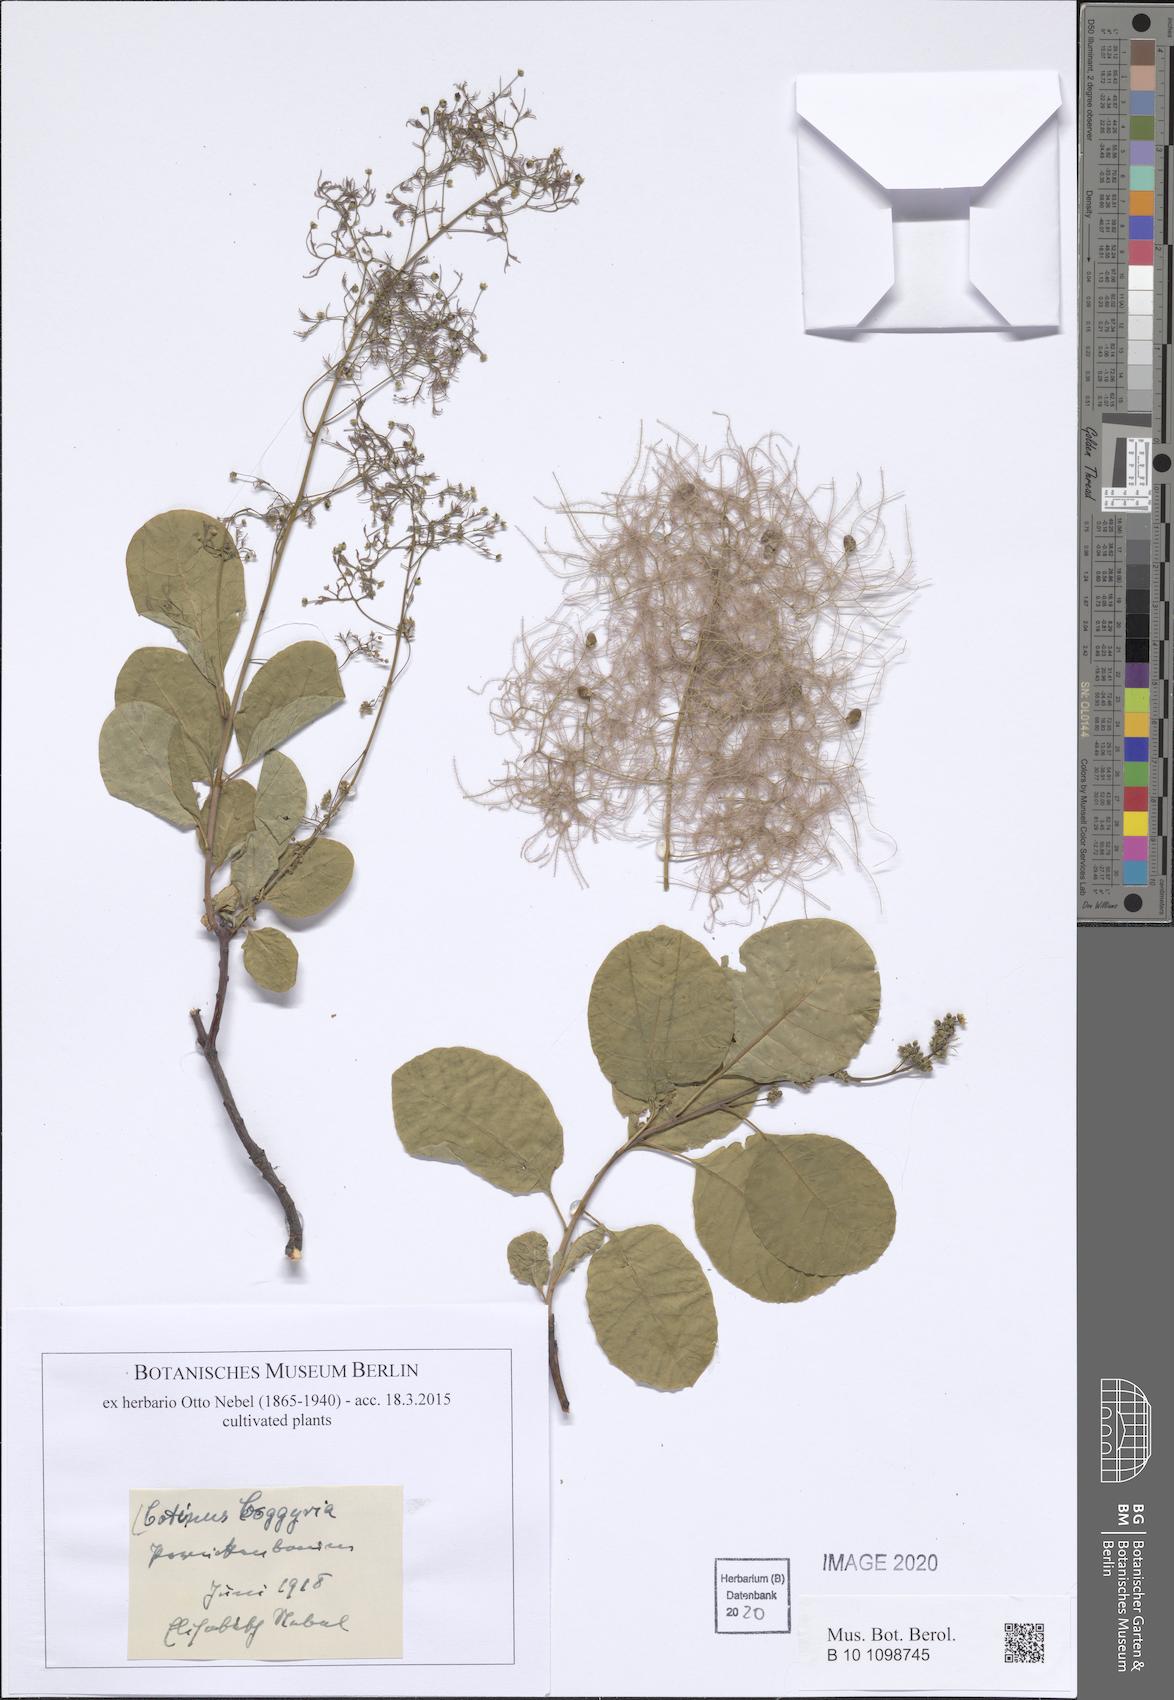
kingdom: Plantae
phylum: Tracheophyta
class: Magnoliopsida
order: Sapindales
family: Anacardiaceae
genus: Cotinus
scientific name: Cotinus coggygria
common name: Smoke-tree
